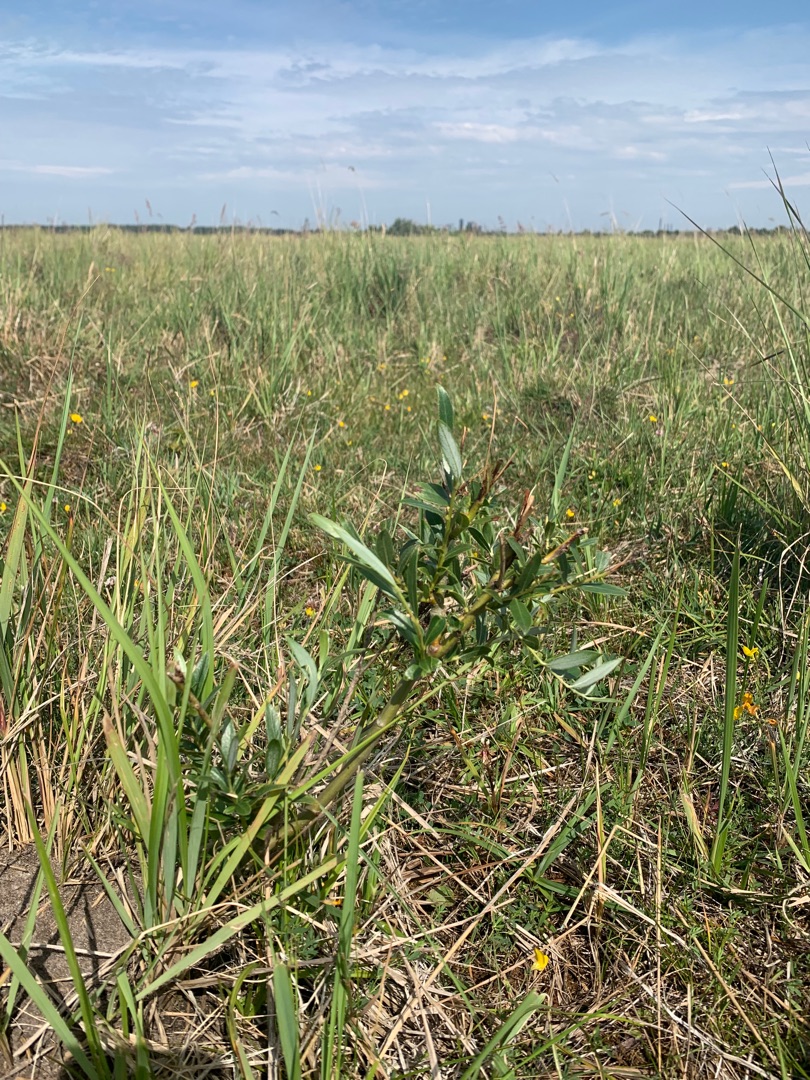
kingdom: Plantae
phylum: Tracheophyta
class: Magnoliopsida
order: Malpighiales
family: Salicaceae
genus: Salix
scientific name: Salix alba
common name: Hvid-pil
